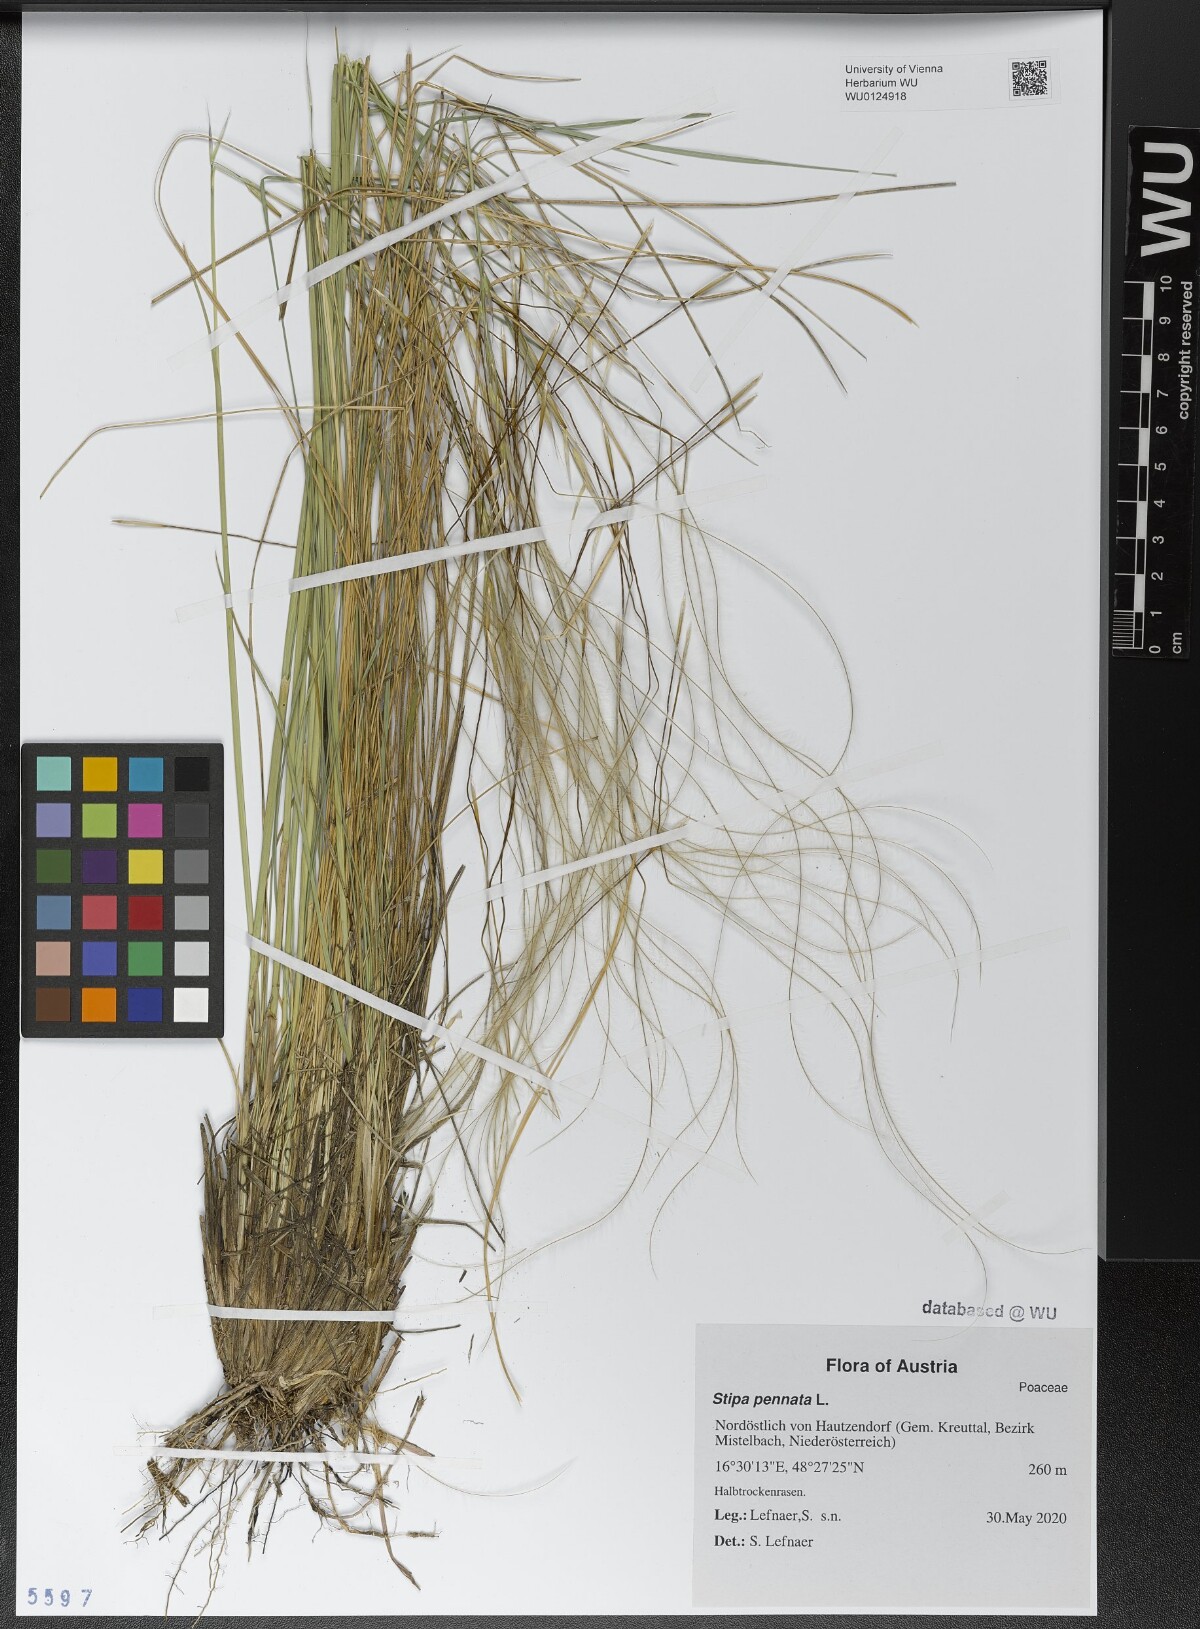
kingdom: Plantae
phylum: Tracheophyta
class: Liliopsida
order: Poales
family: Poaceae
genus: Stipa
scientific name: Stipa pennata
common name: European feather grass
